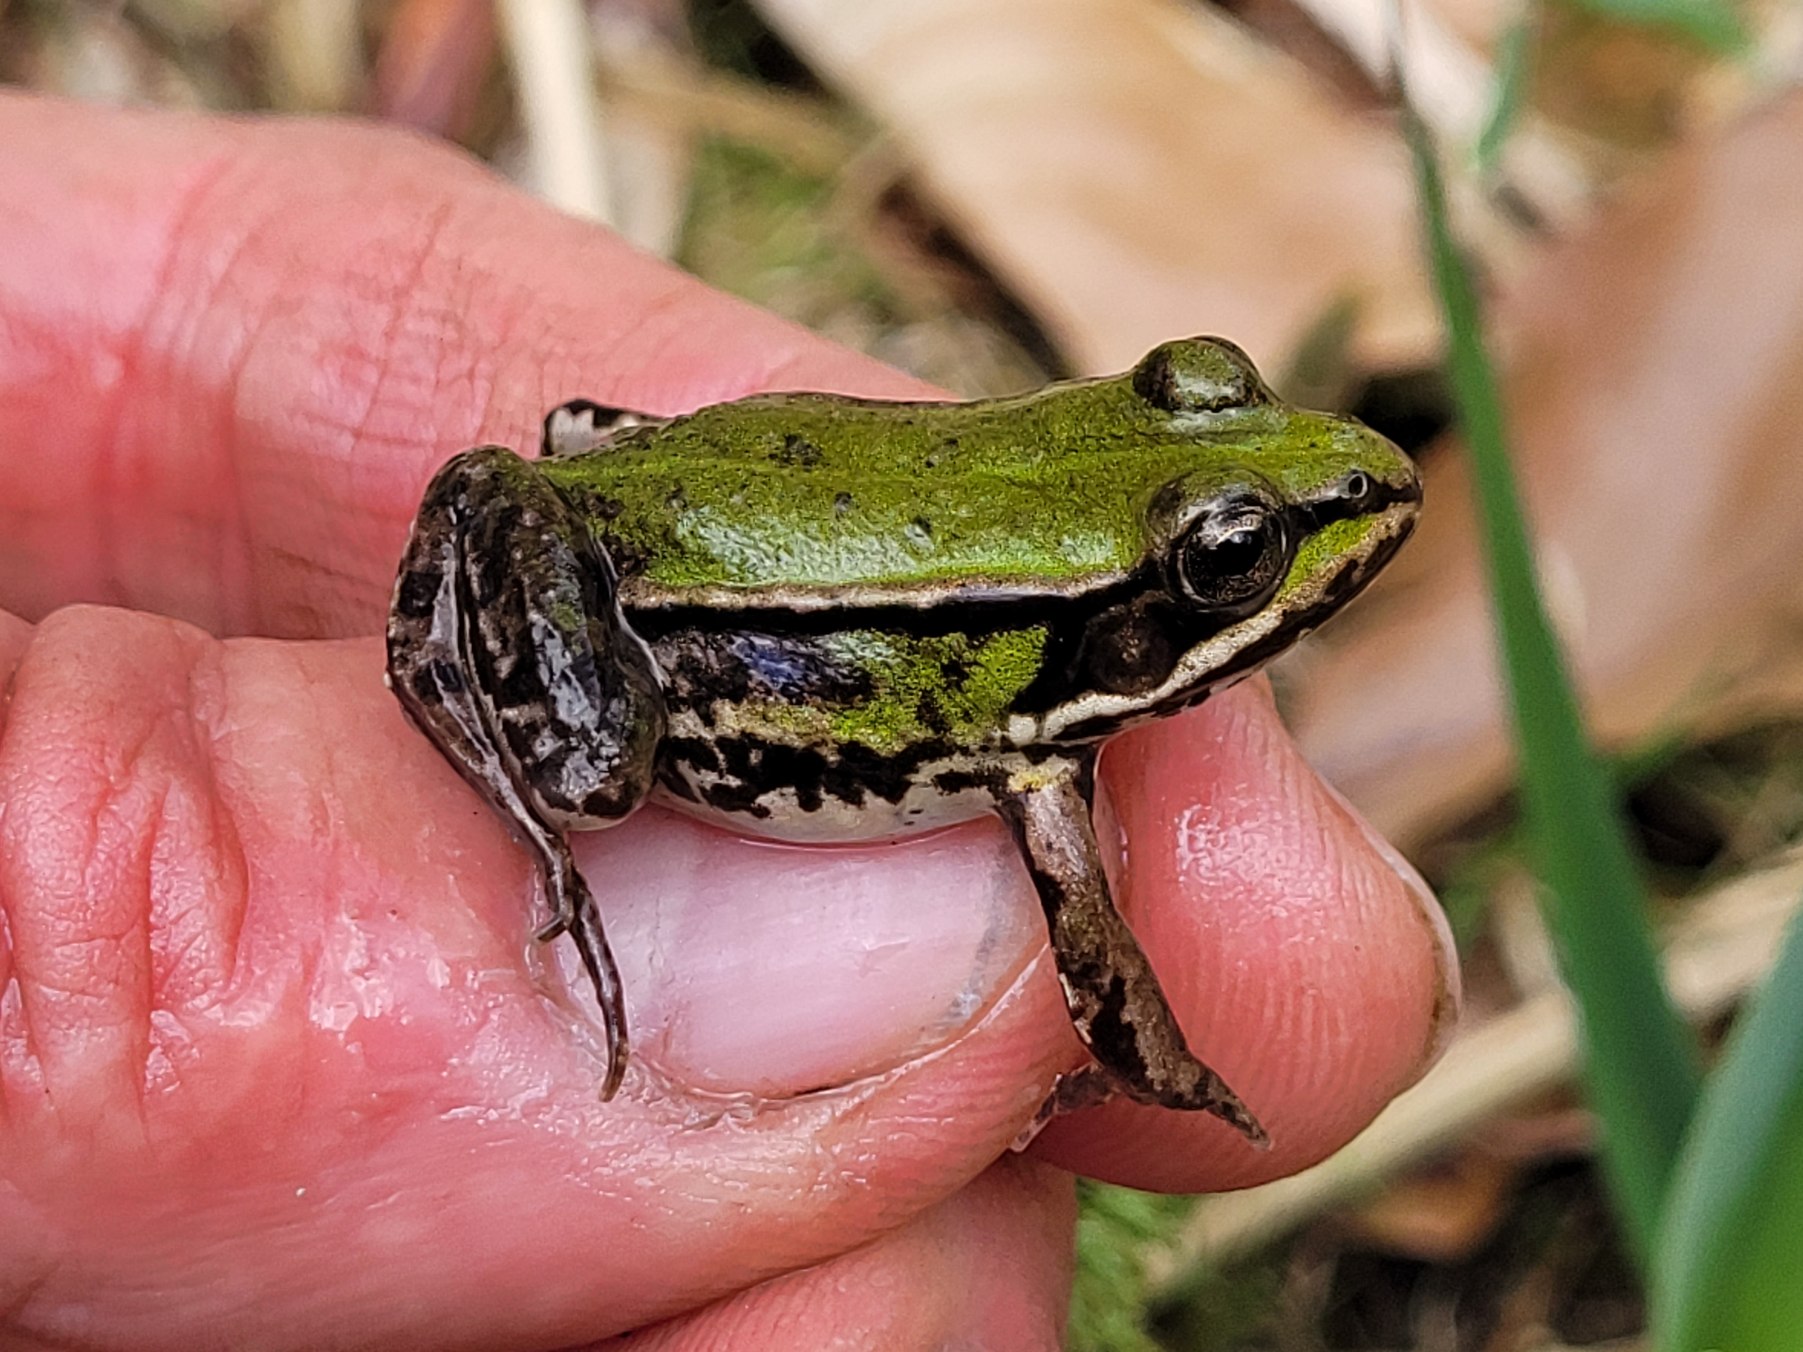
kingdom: Animalia
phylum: Chordata
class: Amphibia
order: Anura
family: Ranidae
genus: Pelophylax
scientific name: Pelophylax lessonae
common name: Grøn frø
